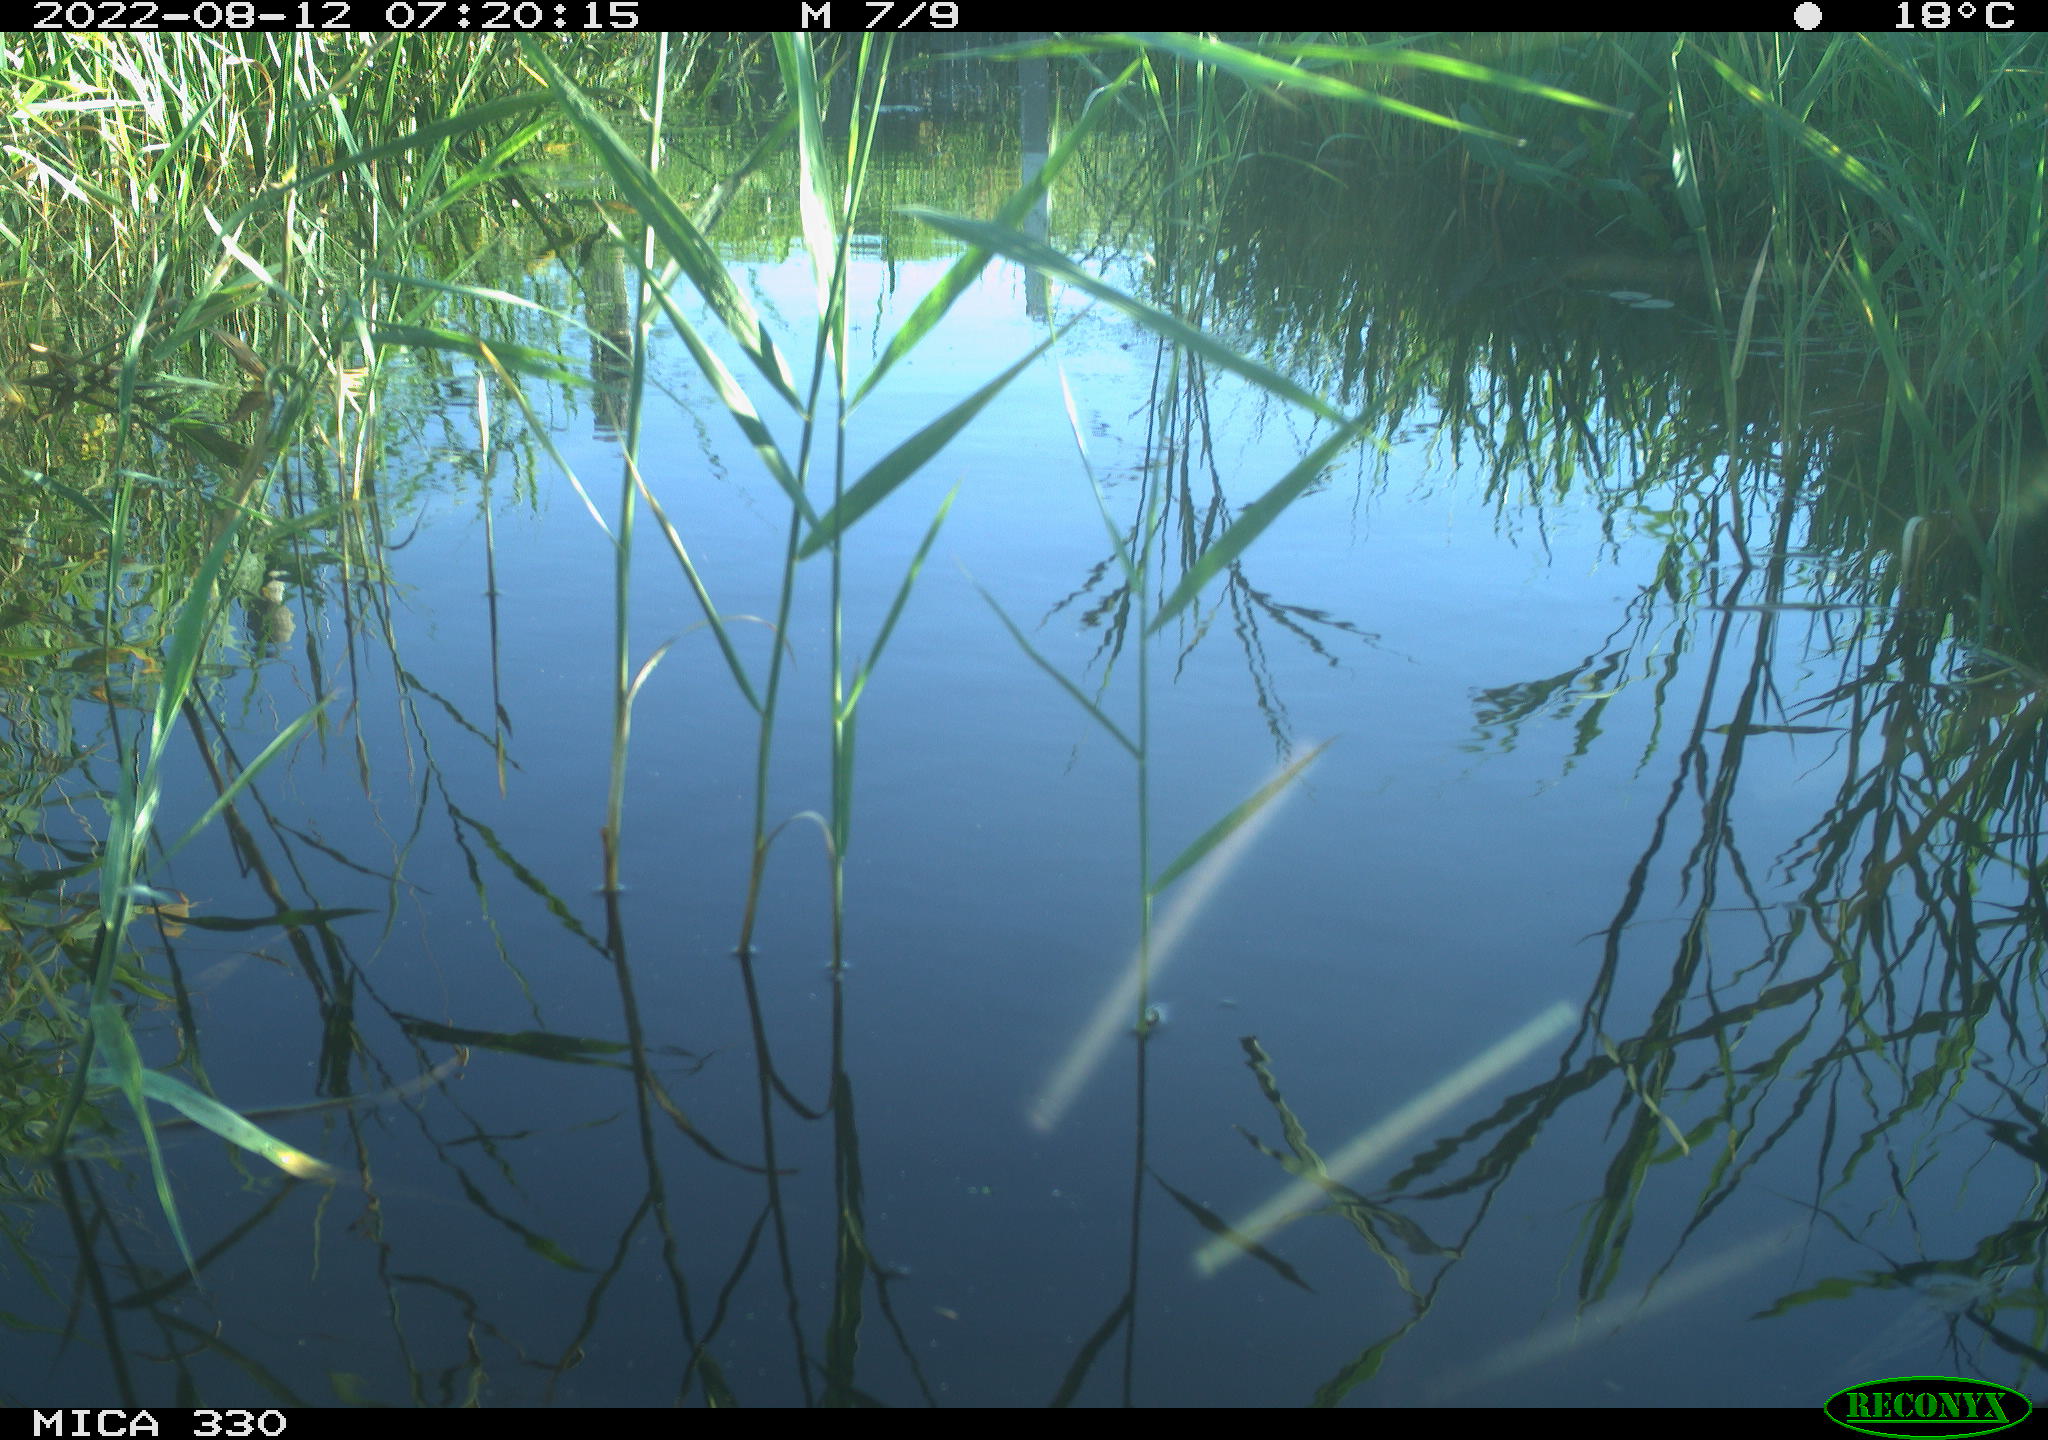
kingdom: Animalia
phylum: Chordata
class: Aves
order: Gruiformes
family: Rallidae
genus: Gallinula
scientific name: Gallinula chloropus
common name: Common moorhen
